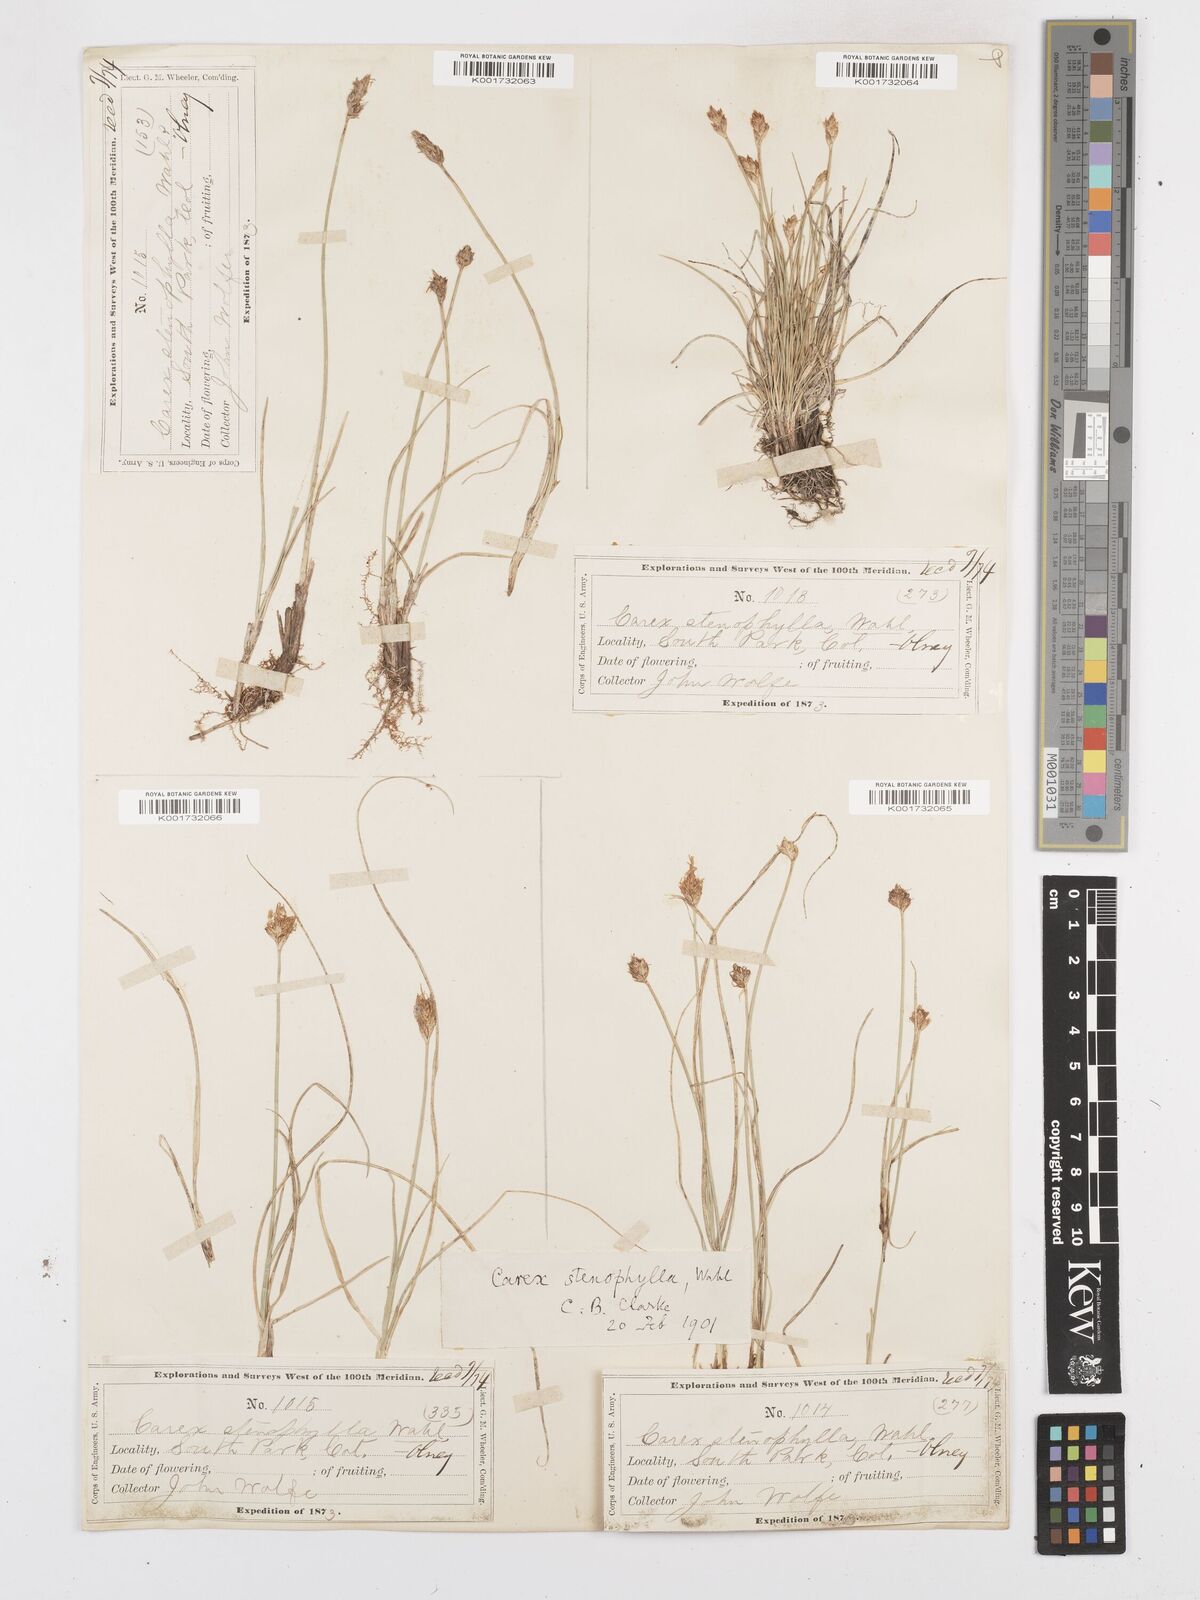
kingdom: Plantae
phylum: Tracheophyta
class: Liliopsida
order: Poales
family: Cyperaceae
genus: Carex
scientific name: Carex duriuscula
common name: Involute-leaved sedge
